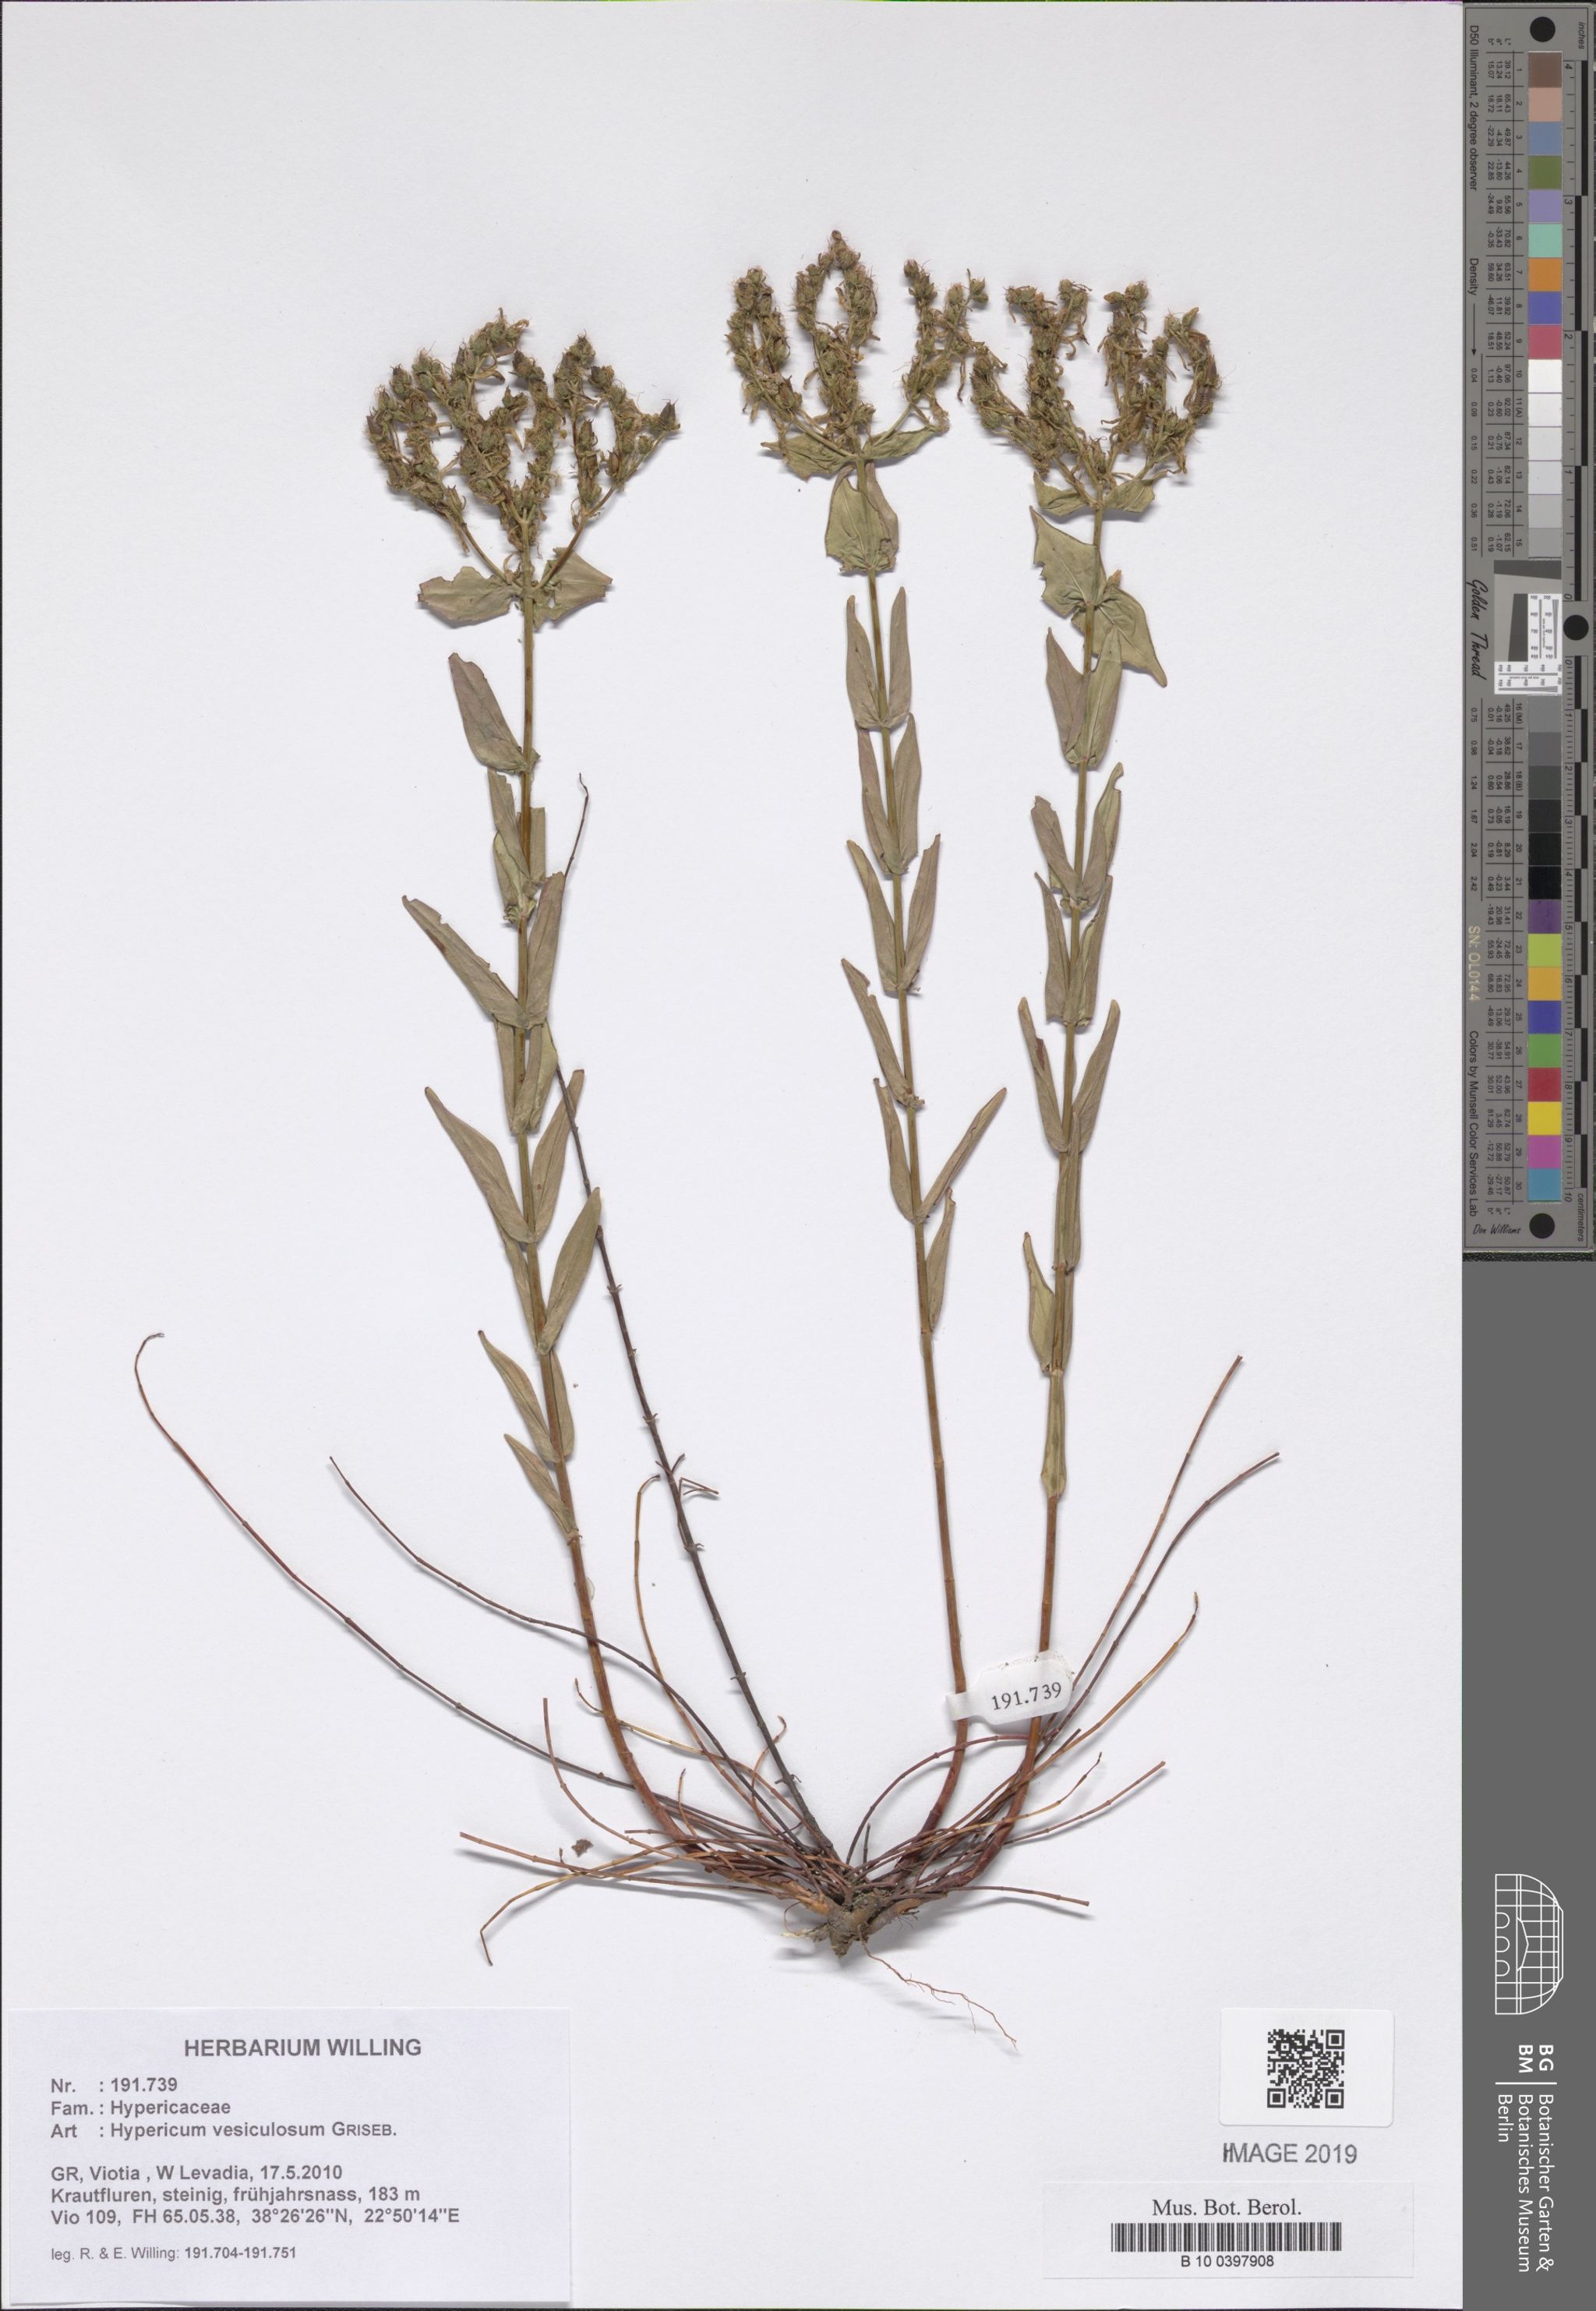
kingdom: Plantae
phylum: Tracheophyta
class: Magnoliopsida
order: Malpighiales
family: Hypericaceae
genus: Hypericum
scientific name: Hypericum vesiculosum
